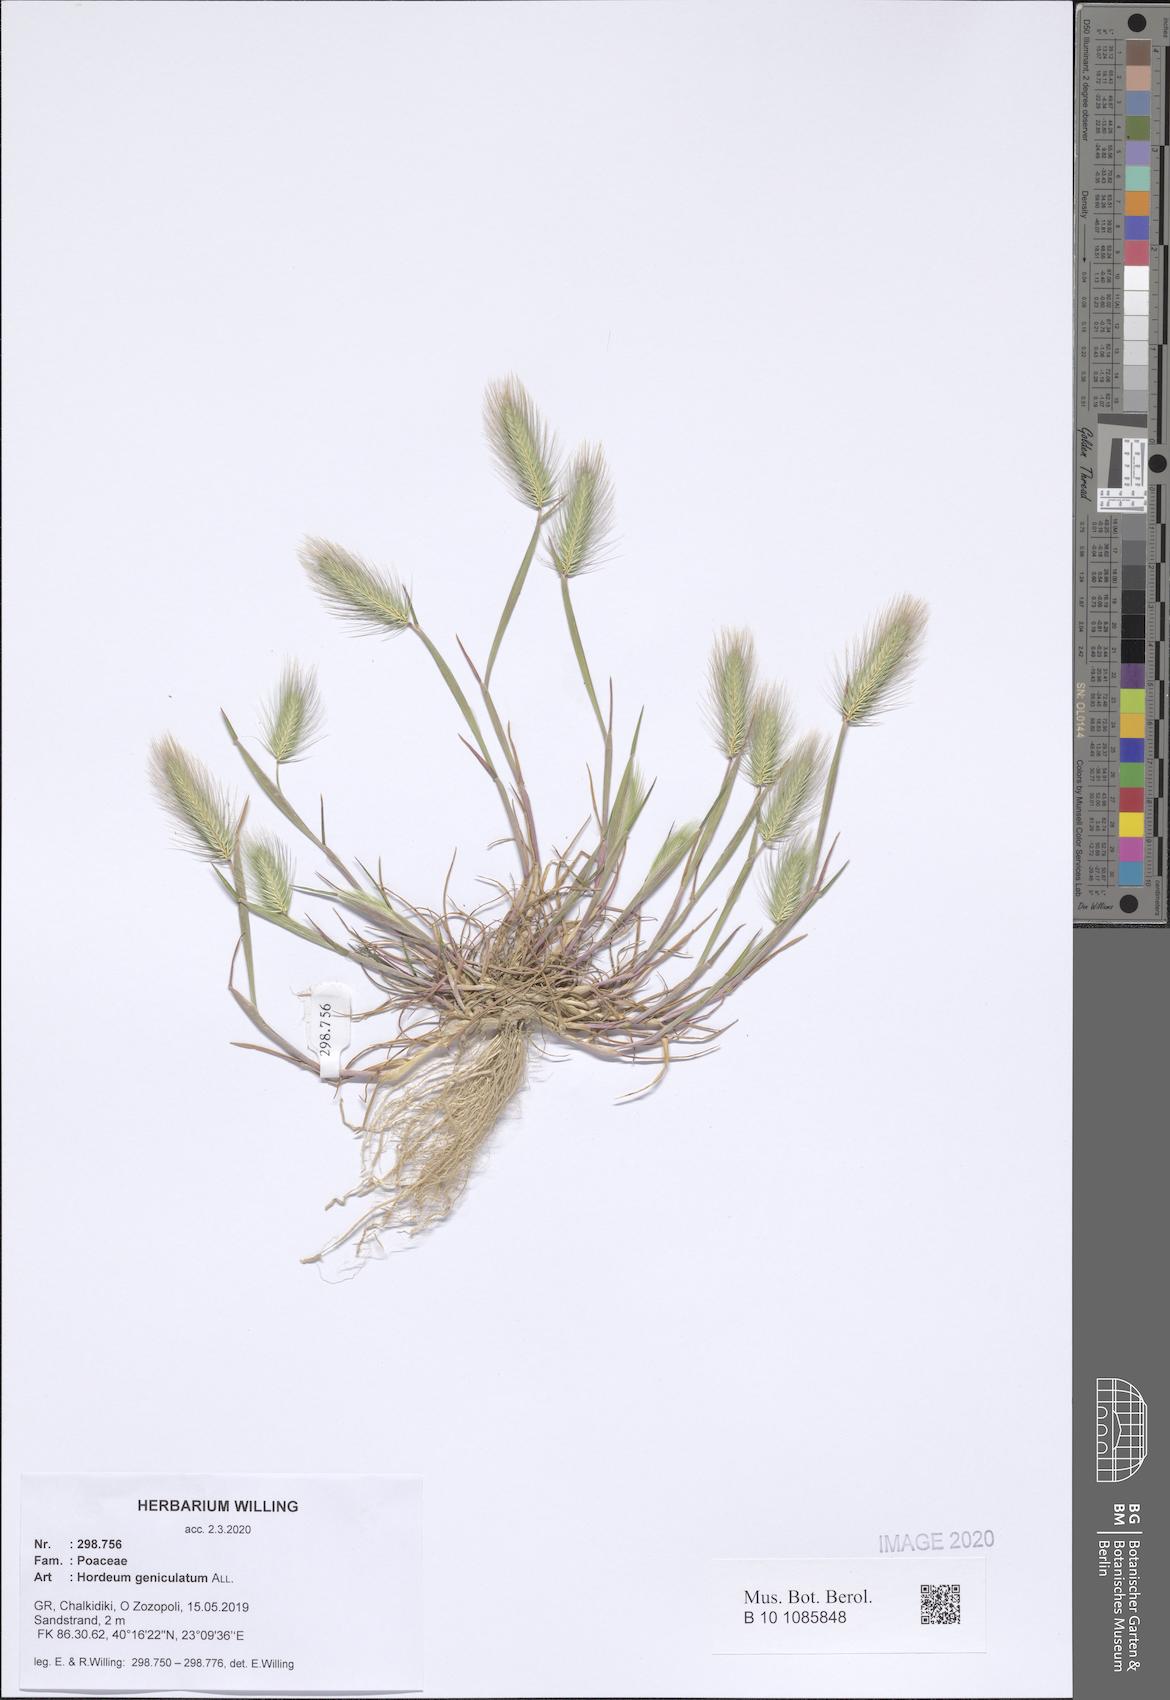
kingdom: Plantae
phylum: Tracheophyta
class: Liliopsida
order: Poales
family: Poaceae
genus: Hordeum
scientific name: Hordeum marinum
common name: Sea barley
